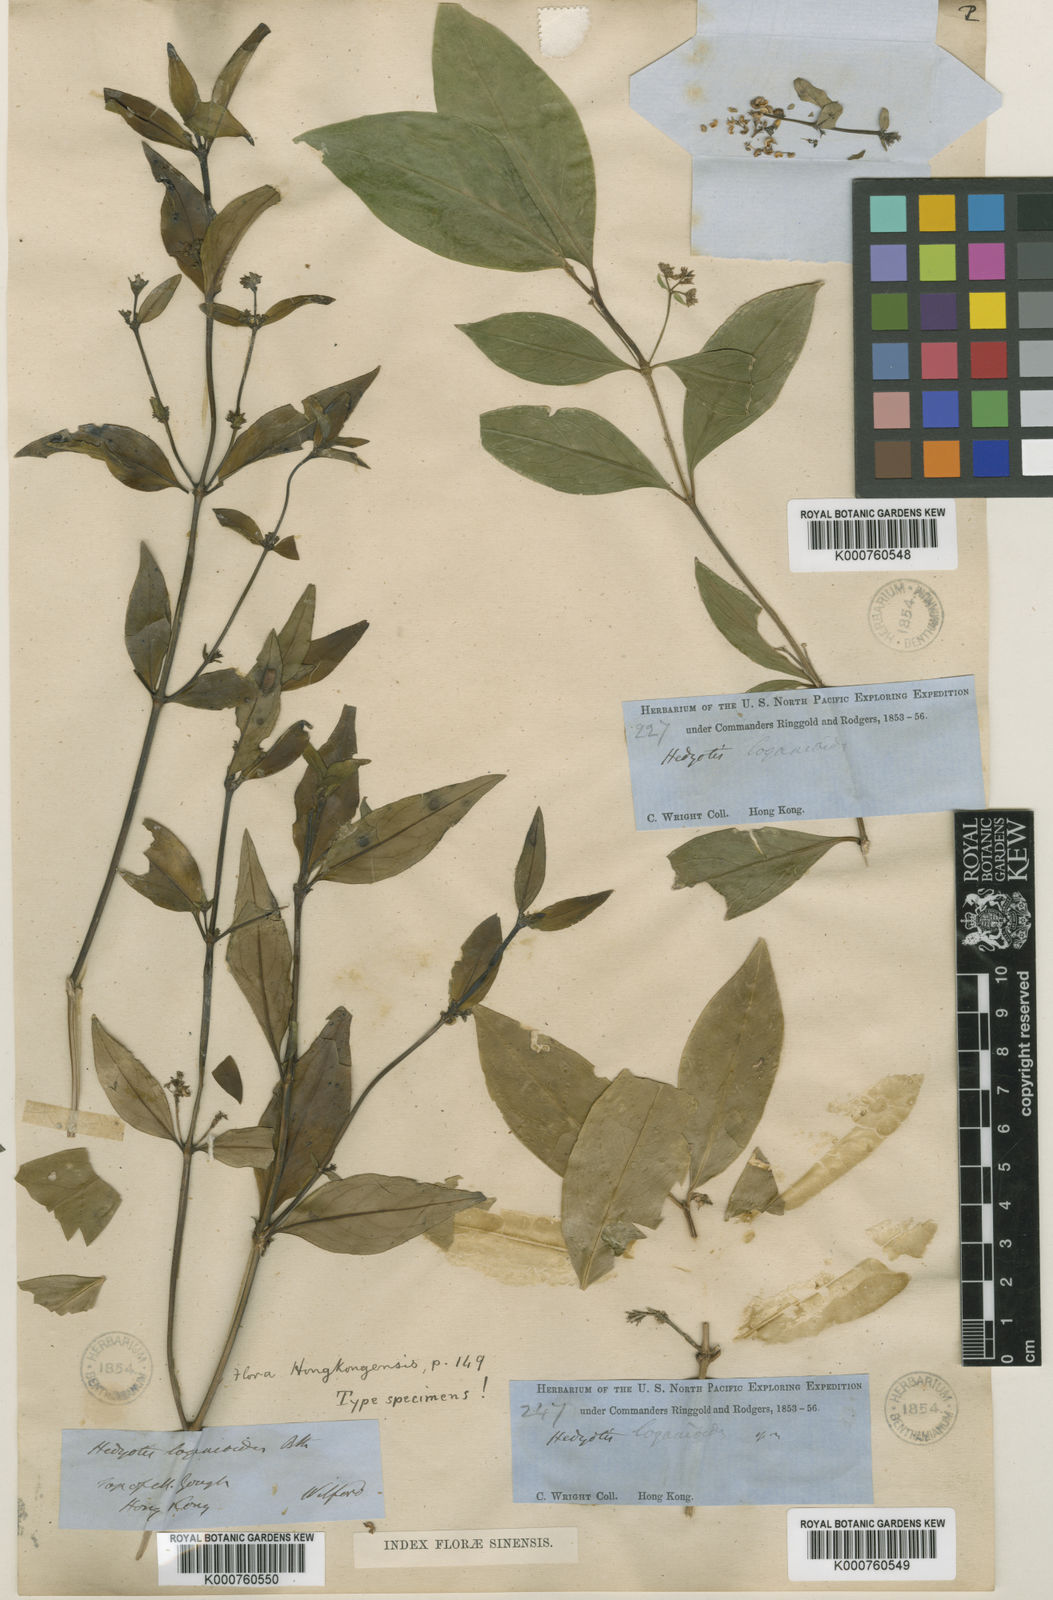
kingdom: Plantae
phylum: Tracheophyta
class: Magnoliopsida
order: Gentianales
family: Rubiaceae
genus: Hedyotis
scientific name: Hedyotis loganioides
